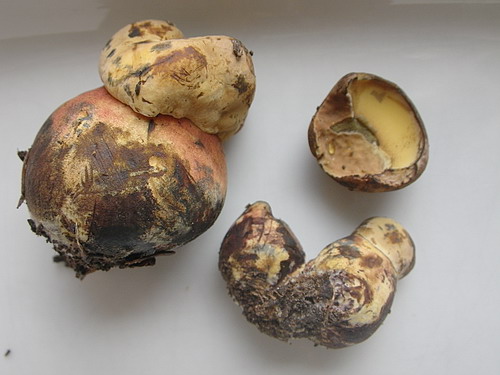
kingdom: Fungi
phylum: Basidiomycota
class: Agaricomycetes
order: Boletales
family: Boletaceae
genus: Neoboletus
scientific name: Neoboletus erythropus
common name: punktstokket indigorørhat
